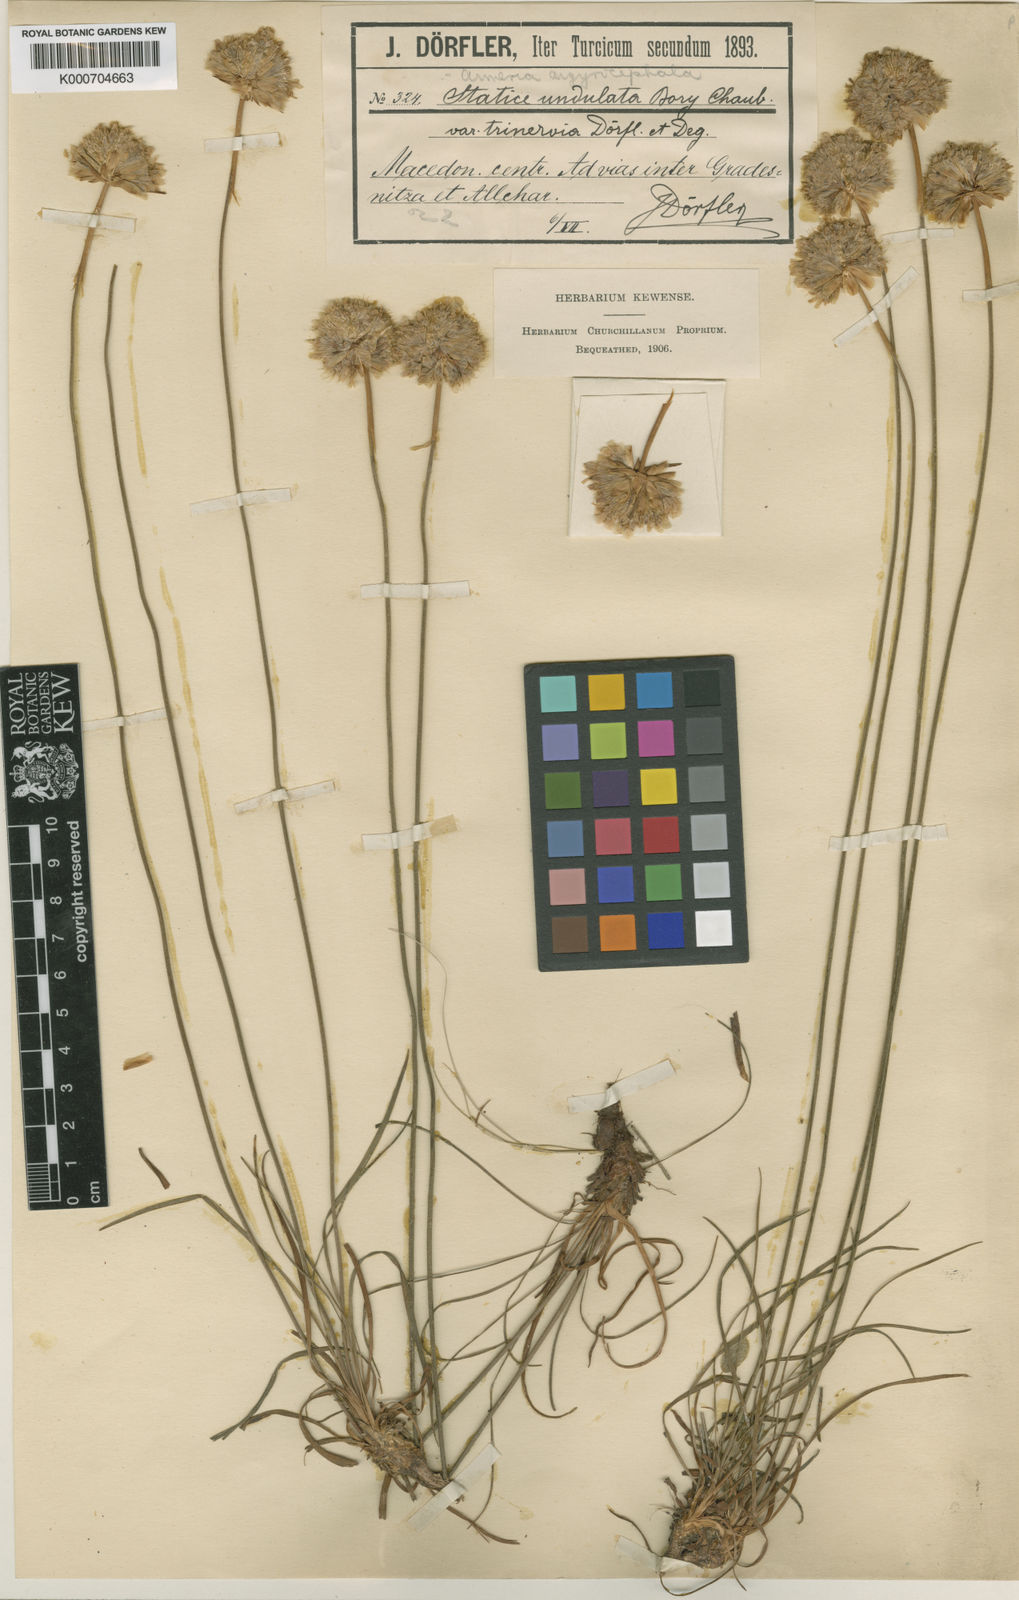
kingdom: Plantae
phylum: Tracheophyta
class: Magnoliopsida
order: Caryophyllales
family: Plumbaginaceae
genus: Armeria
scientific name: Armeria undulata
